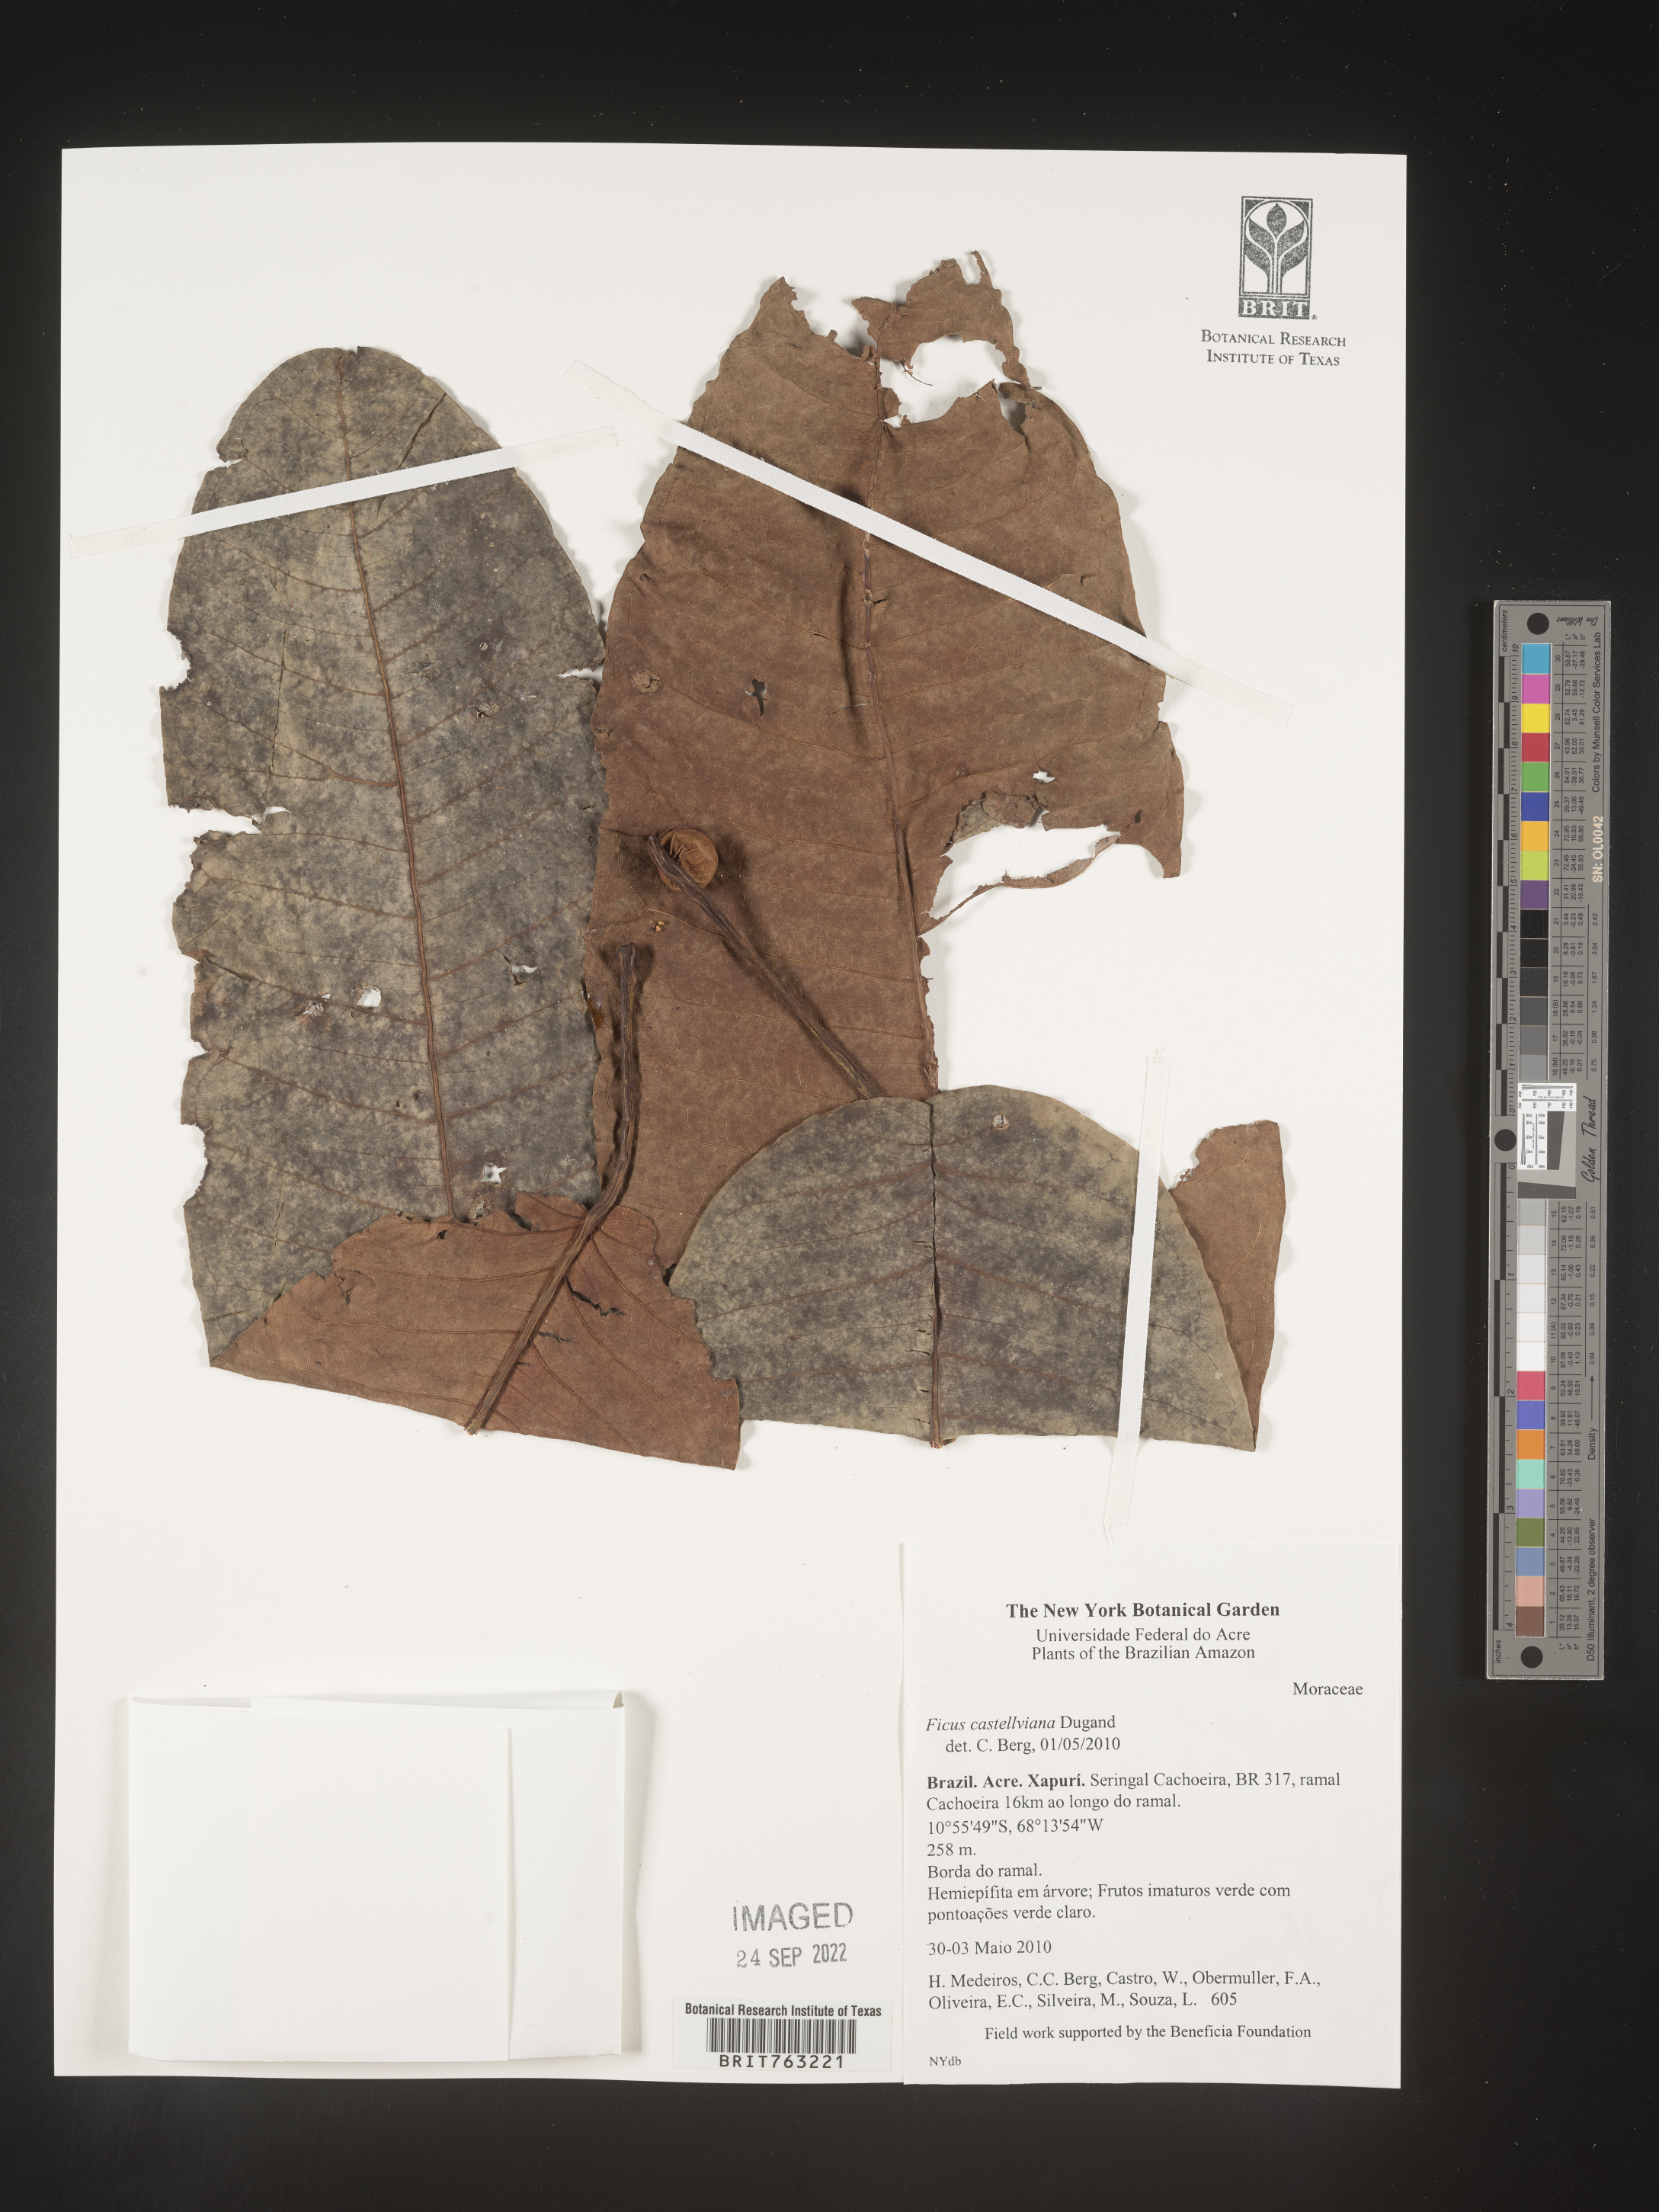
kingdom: Plantae
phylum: Tracheophyta
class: Magnoliopsida
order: Rosales
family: Moraceae
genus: Ficus
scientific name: Ficus castellviana
